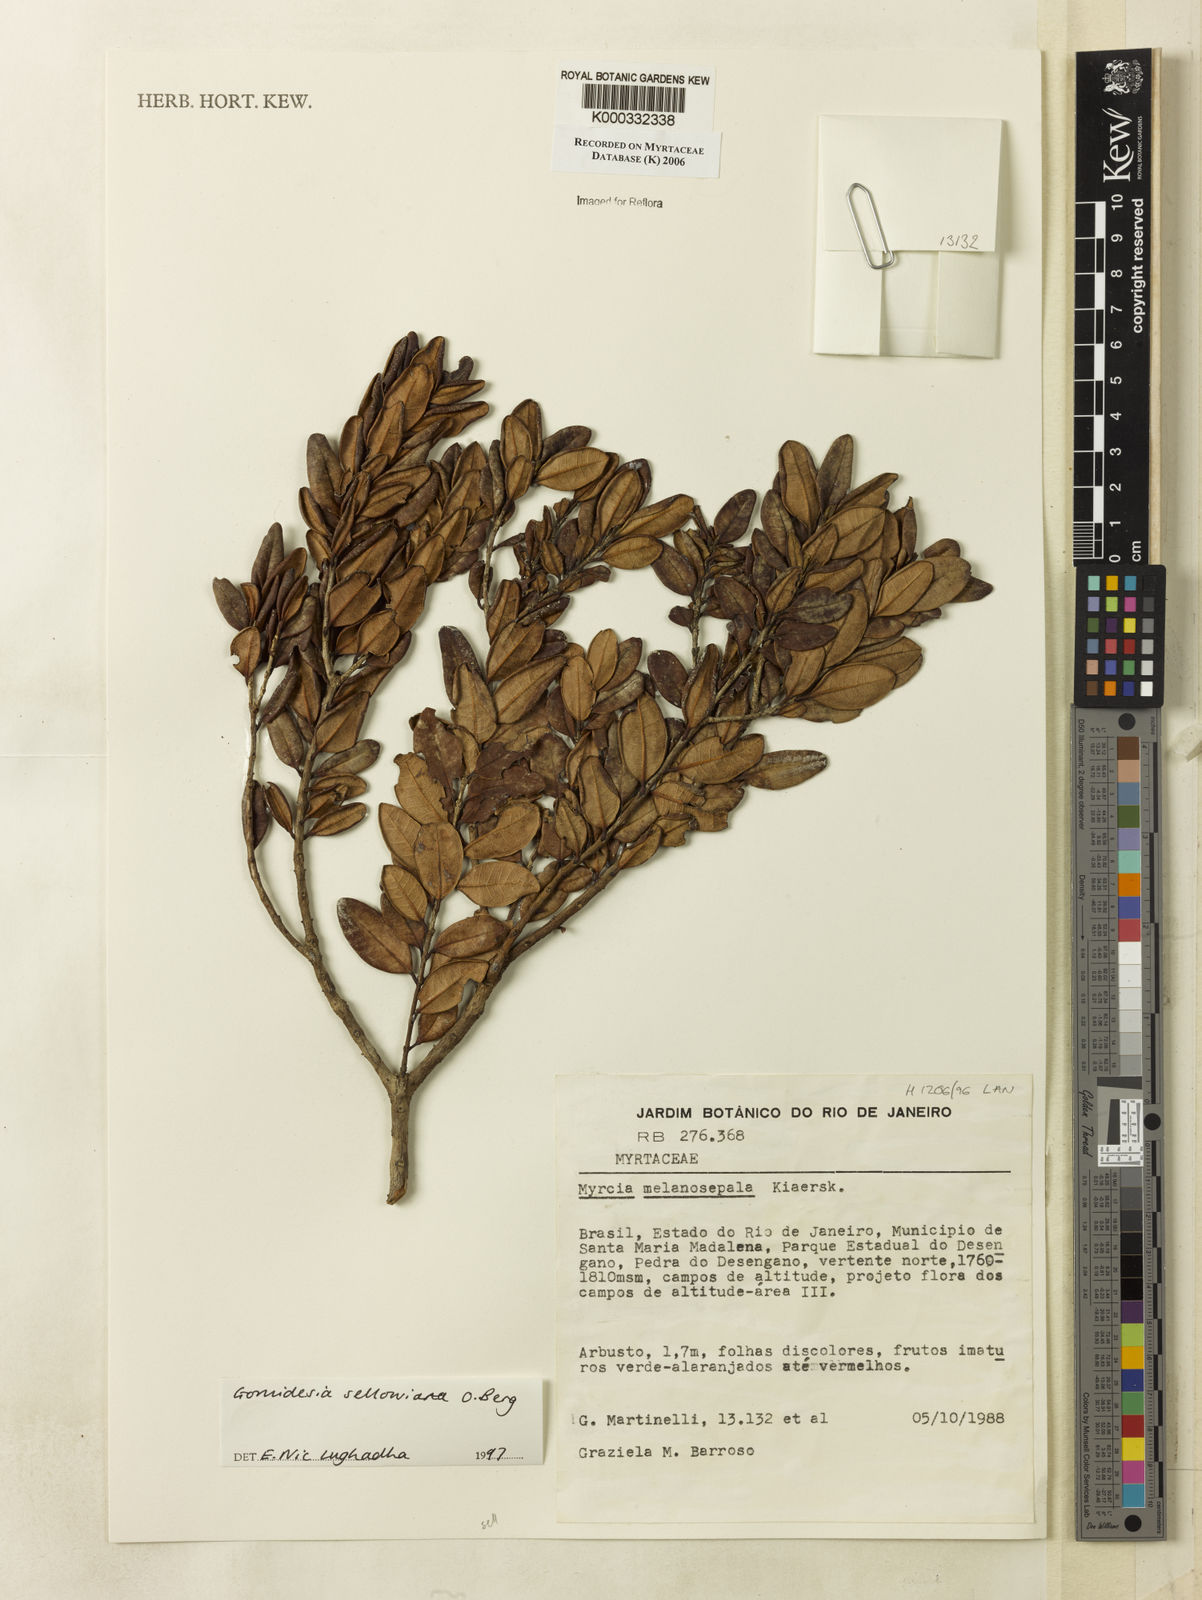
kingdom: Plantae
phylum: Tracheophyta
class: Magnoliopsida
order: Myrtales
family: Myrtaceae
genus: Myrcia
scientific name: Myrcia hartwegiana
